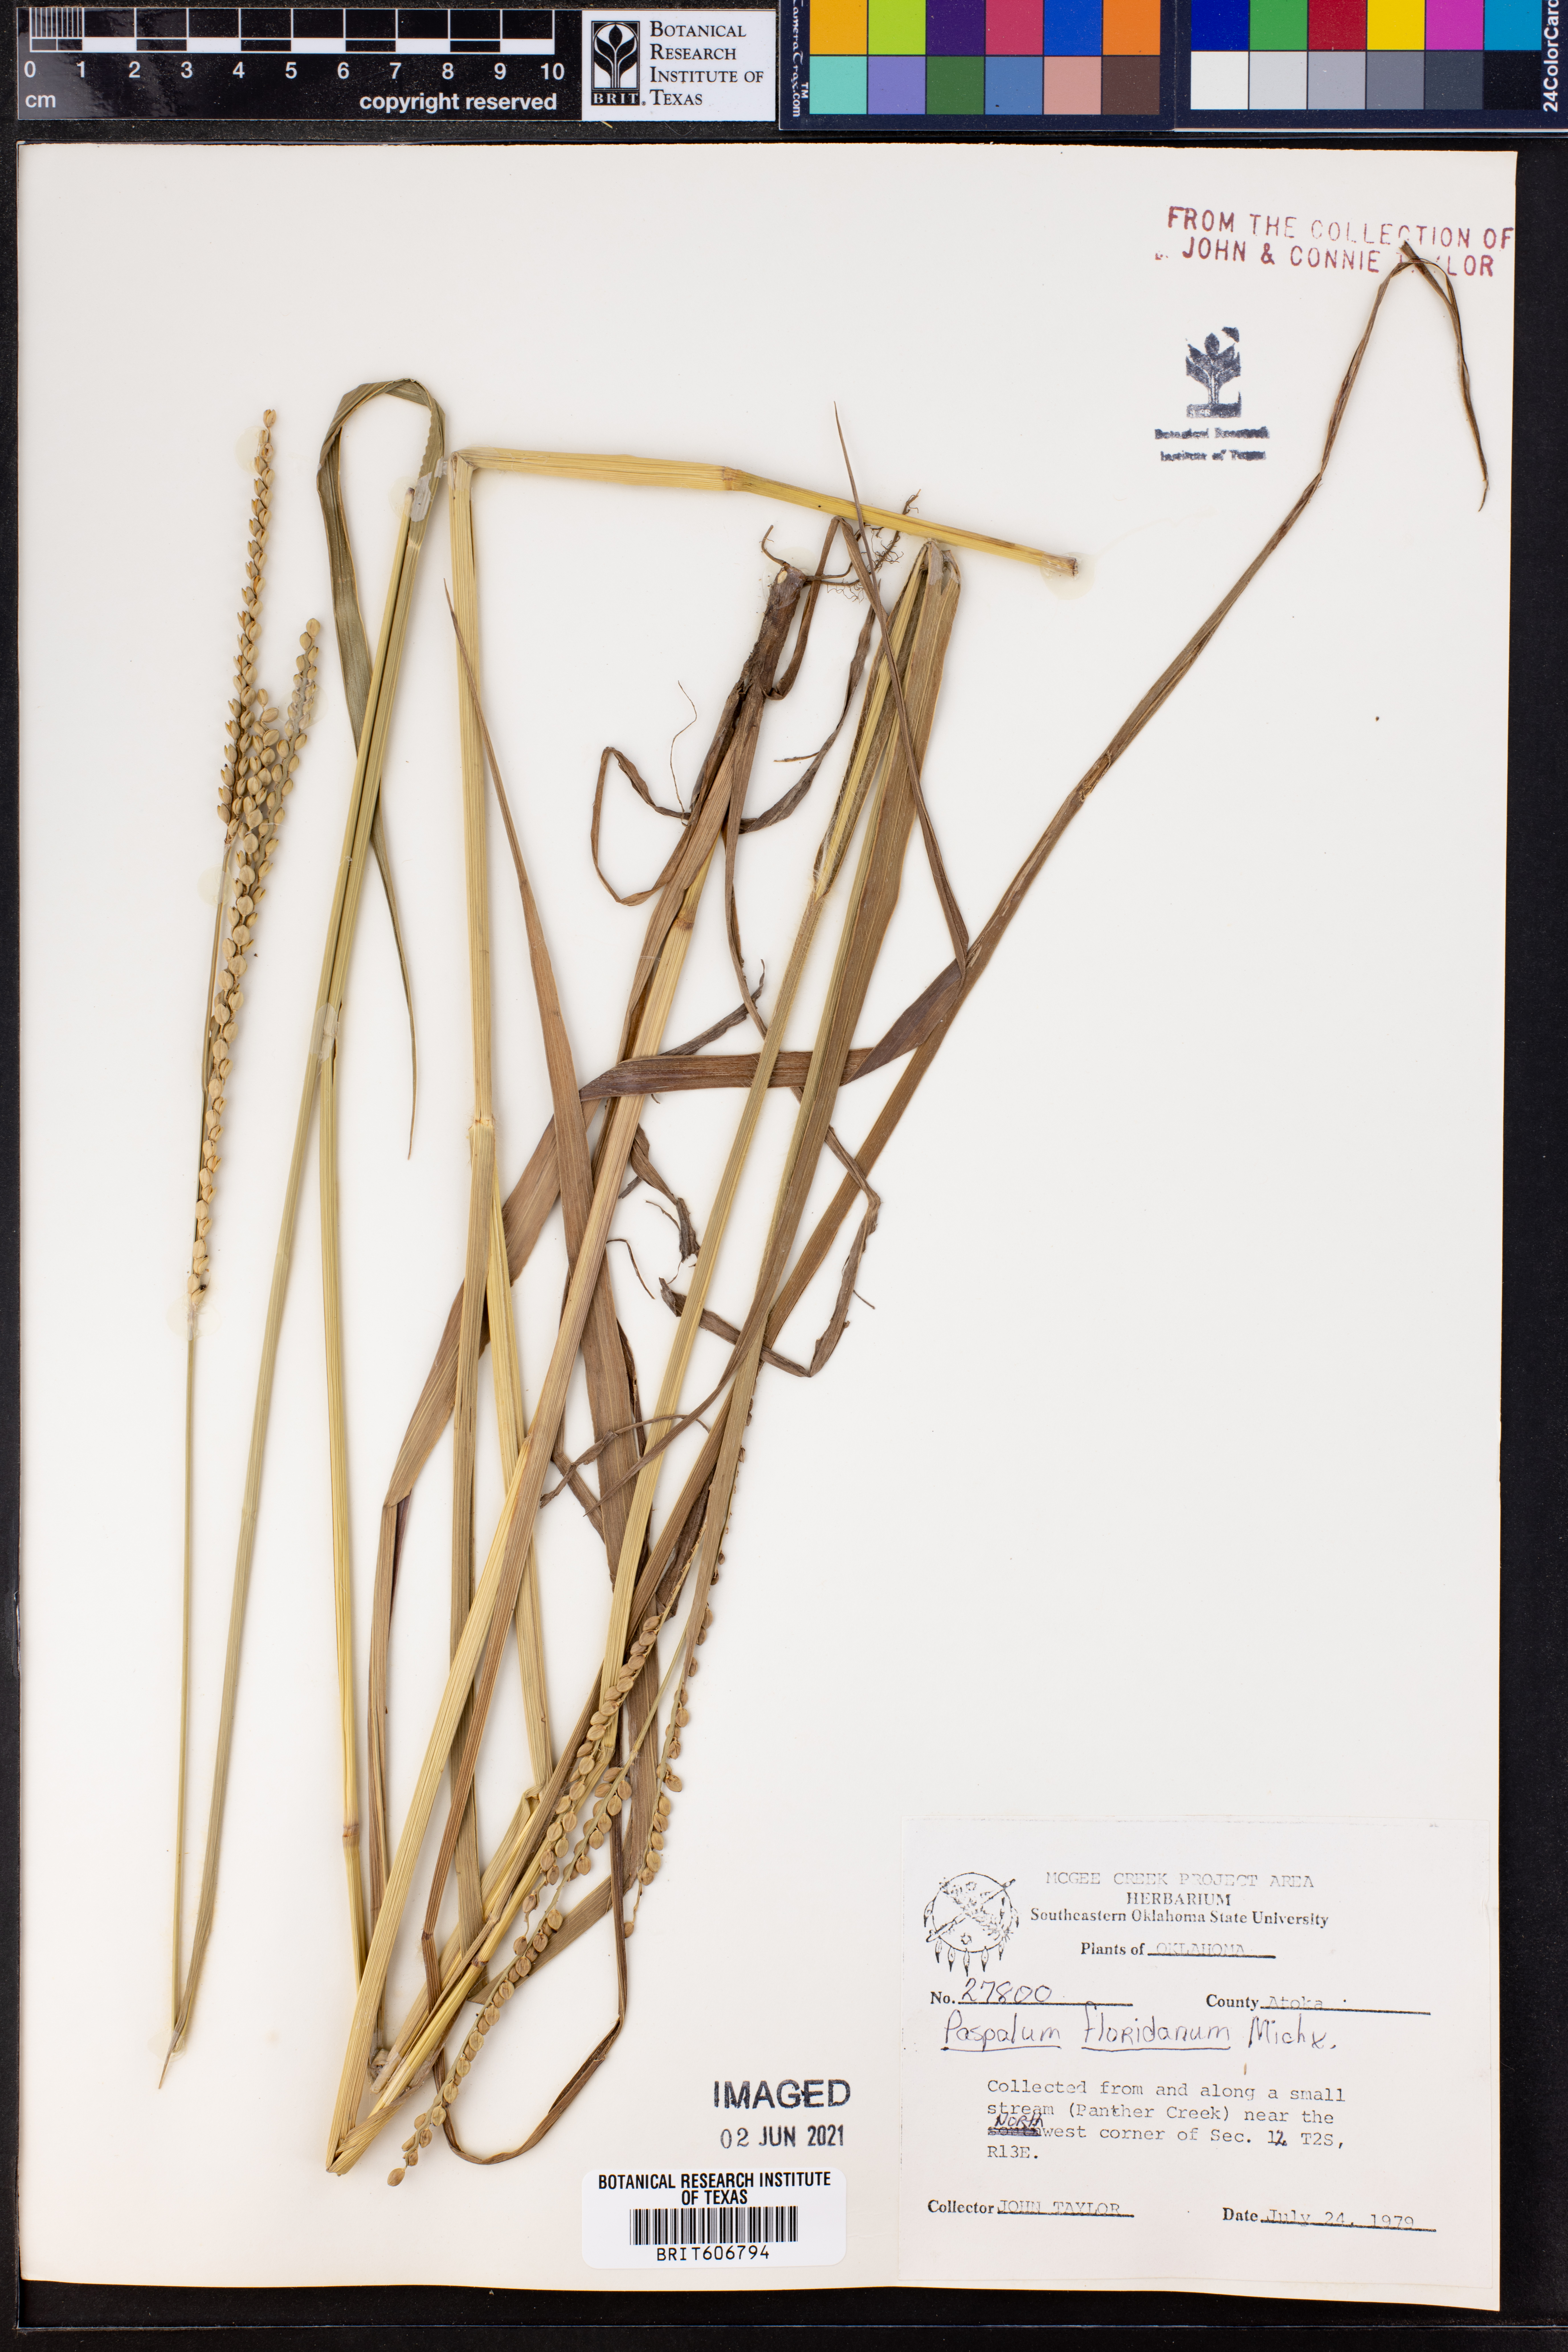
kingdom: Plantae
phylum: Tracheophyta
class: Liliopsida
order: Poales
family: Poaceae
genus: Paspalum
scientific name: Paspalum floridanum
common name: Florida paspalum
